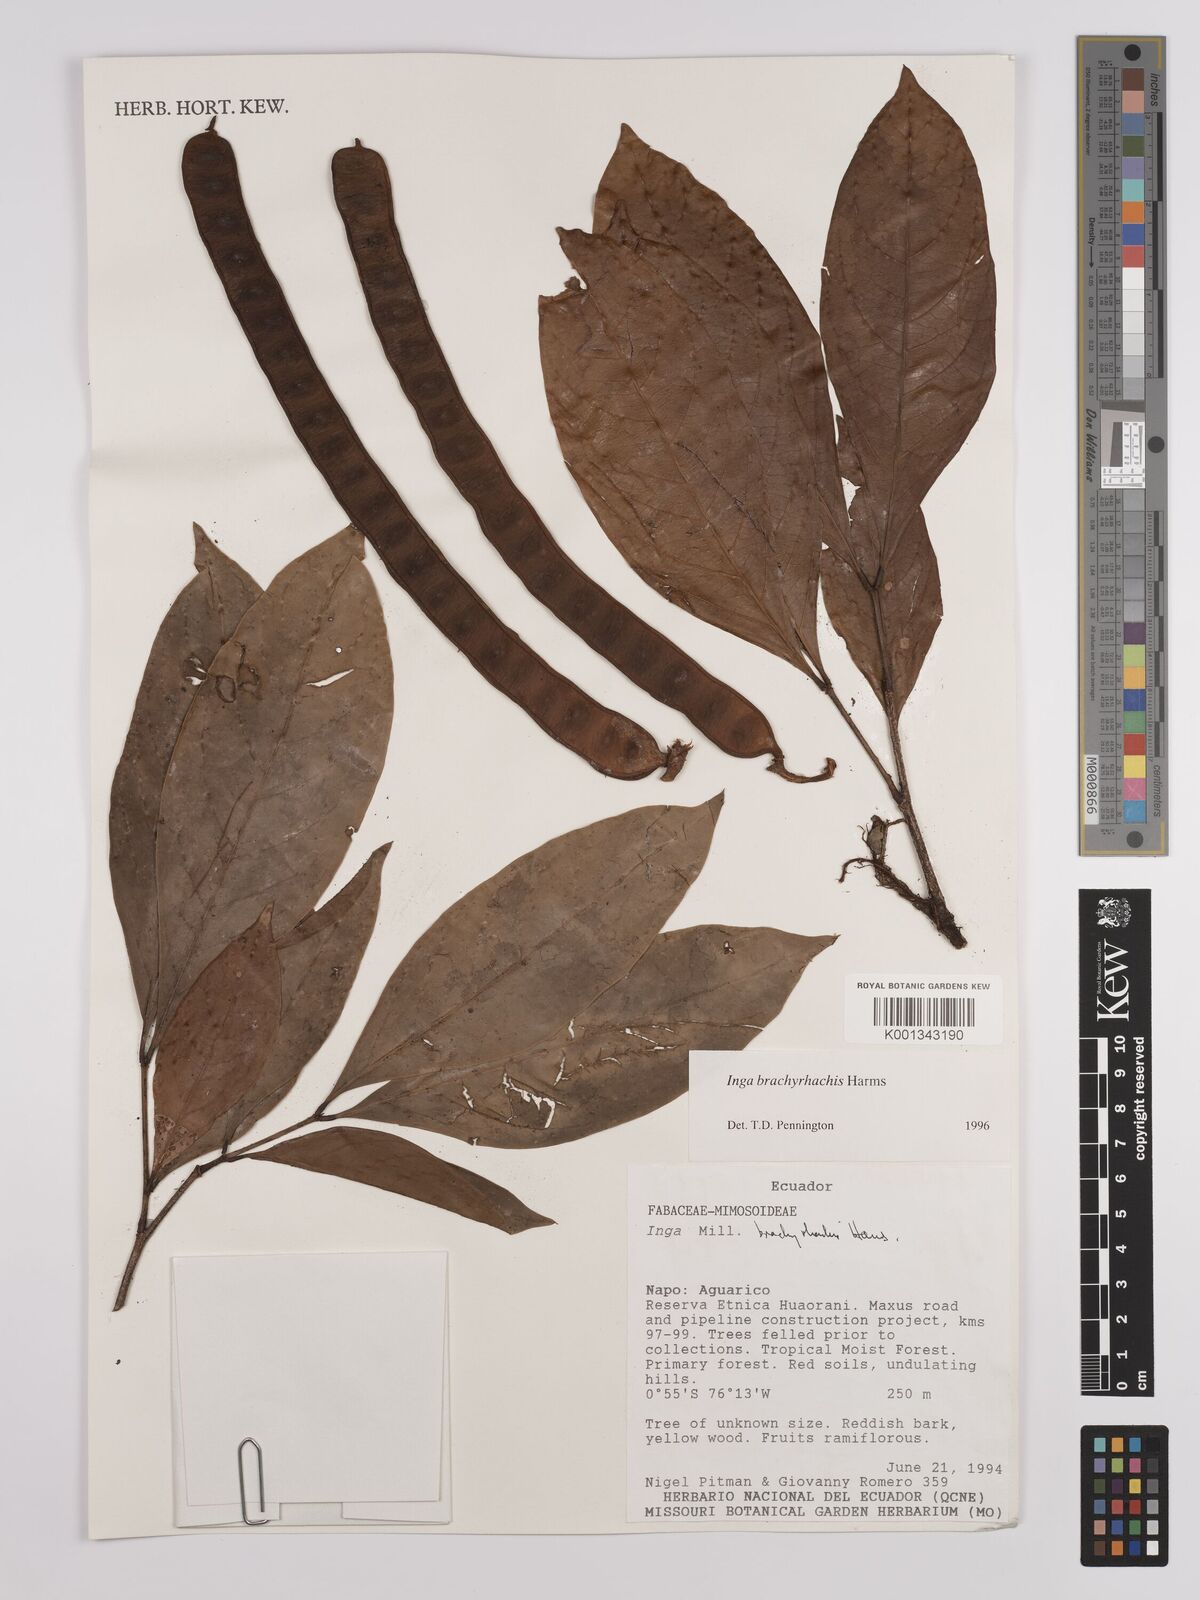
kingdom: Plantae
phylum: Tracheophyta
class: Magnoliopsida
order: Fabales
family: Fabaceae
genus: Inga
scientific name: Inga brachyrhachis
